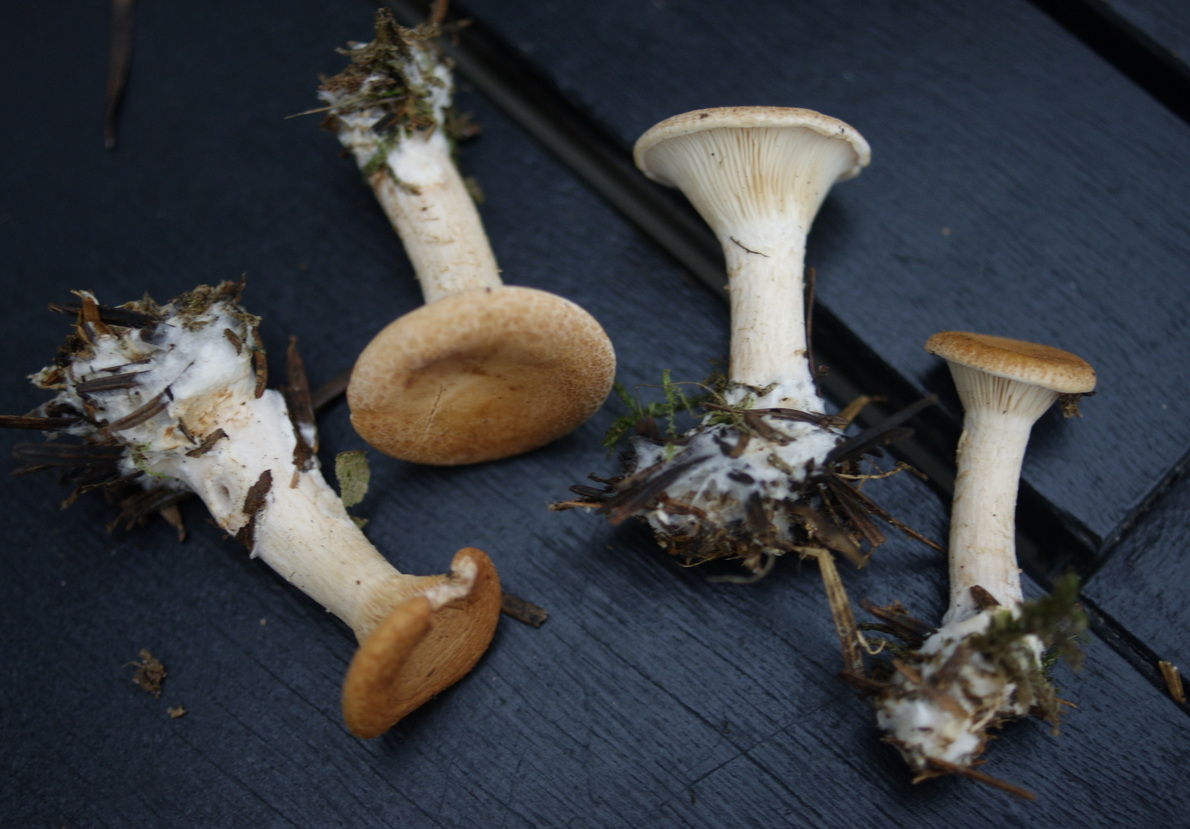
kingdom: Fungi
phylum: Basidiomycota
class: Agaricomycetes
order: Agaricales
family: Tricholomataceae
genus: Paralepista
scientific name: Paralepista gilva
